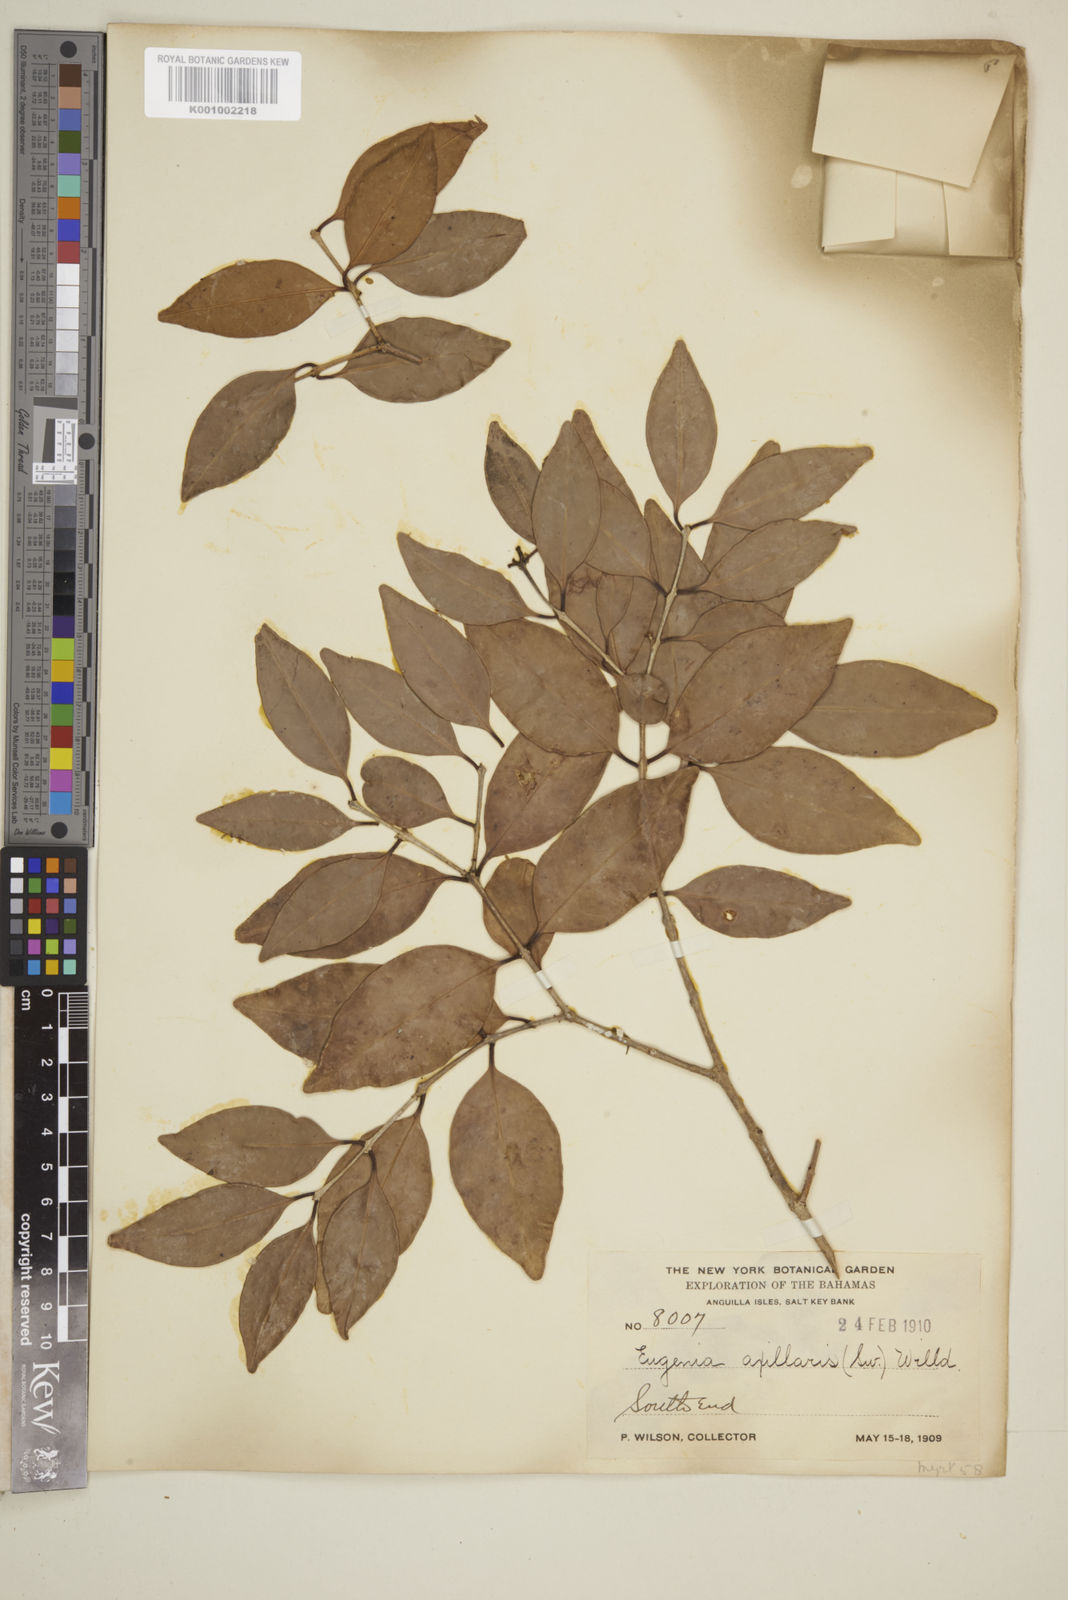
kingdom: Plantae
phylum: Tracheophyta
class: Magnoliopsida
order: Myrtales
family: Myrtaceae
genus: Eugenia
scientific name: Eugenia axillaris
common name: Choaky berry
